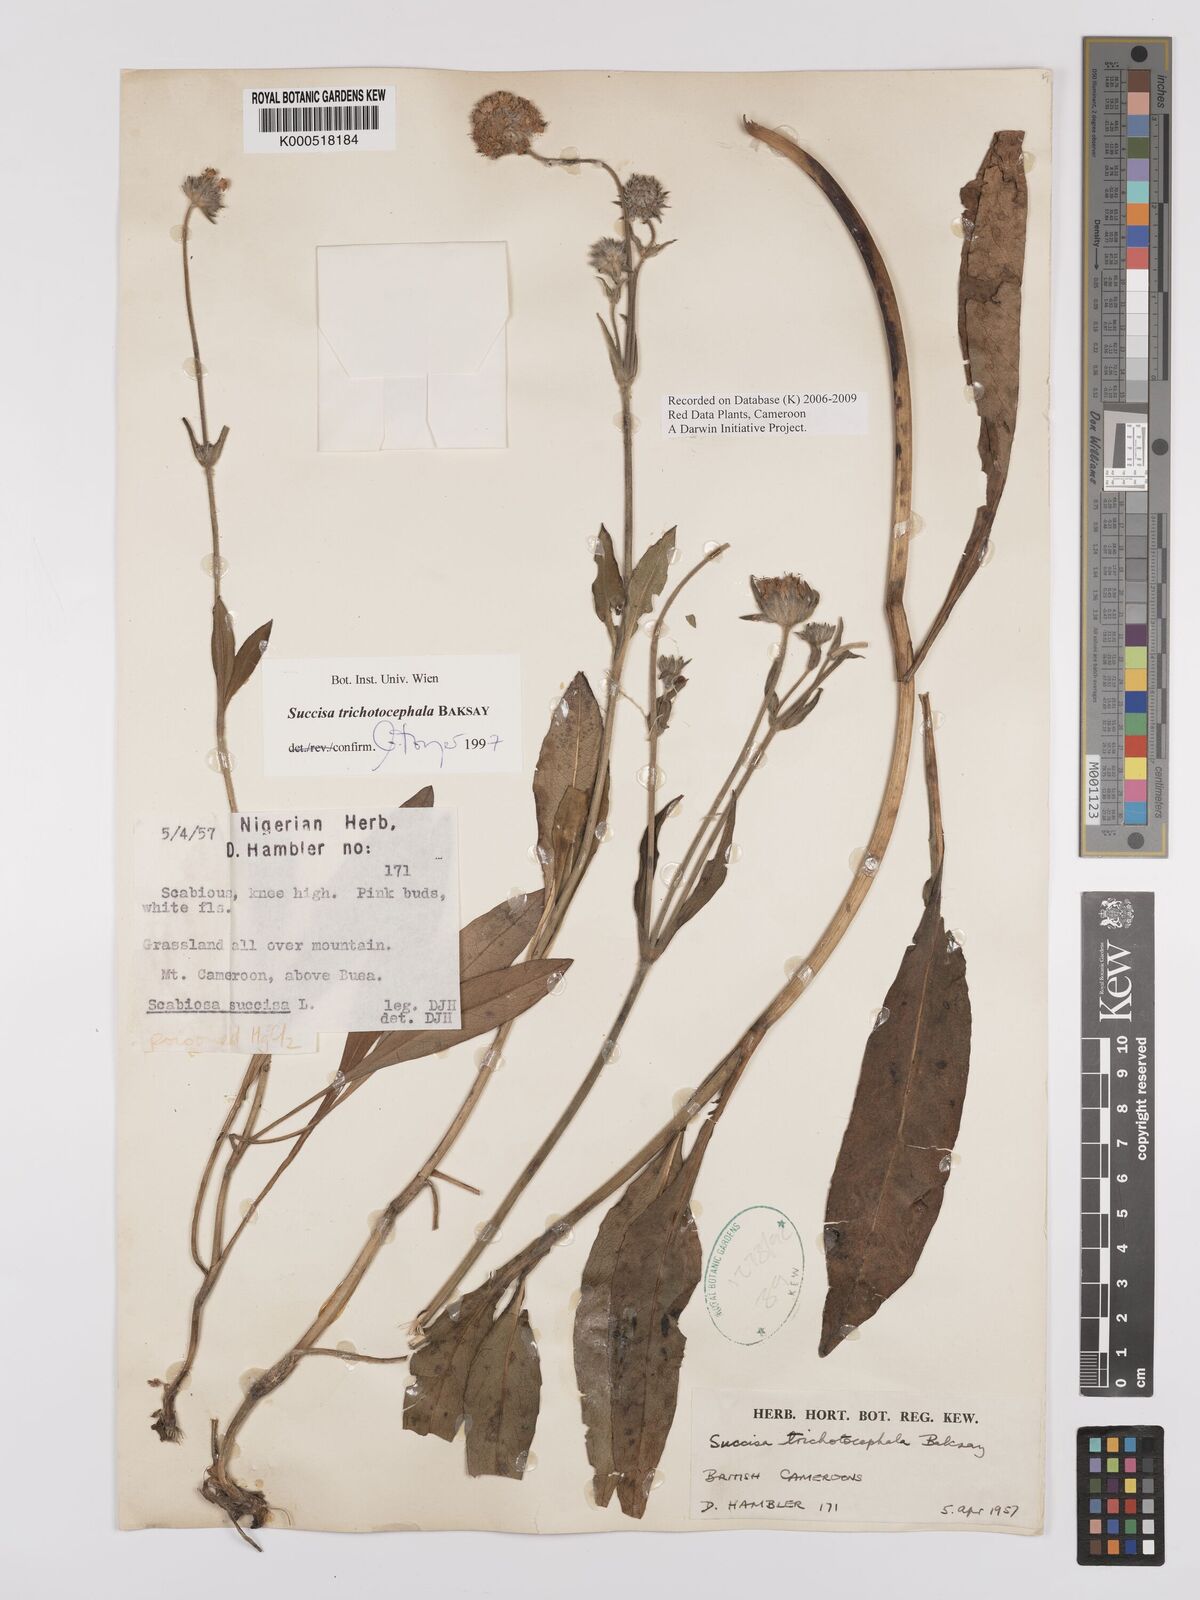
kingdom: Plantae
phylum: Tracheophyta
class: Magnoliopsida
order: Dipsacales
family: Caprifoliaceae
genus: Succisa
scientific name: Succisa trichotocephala
